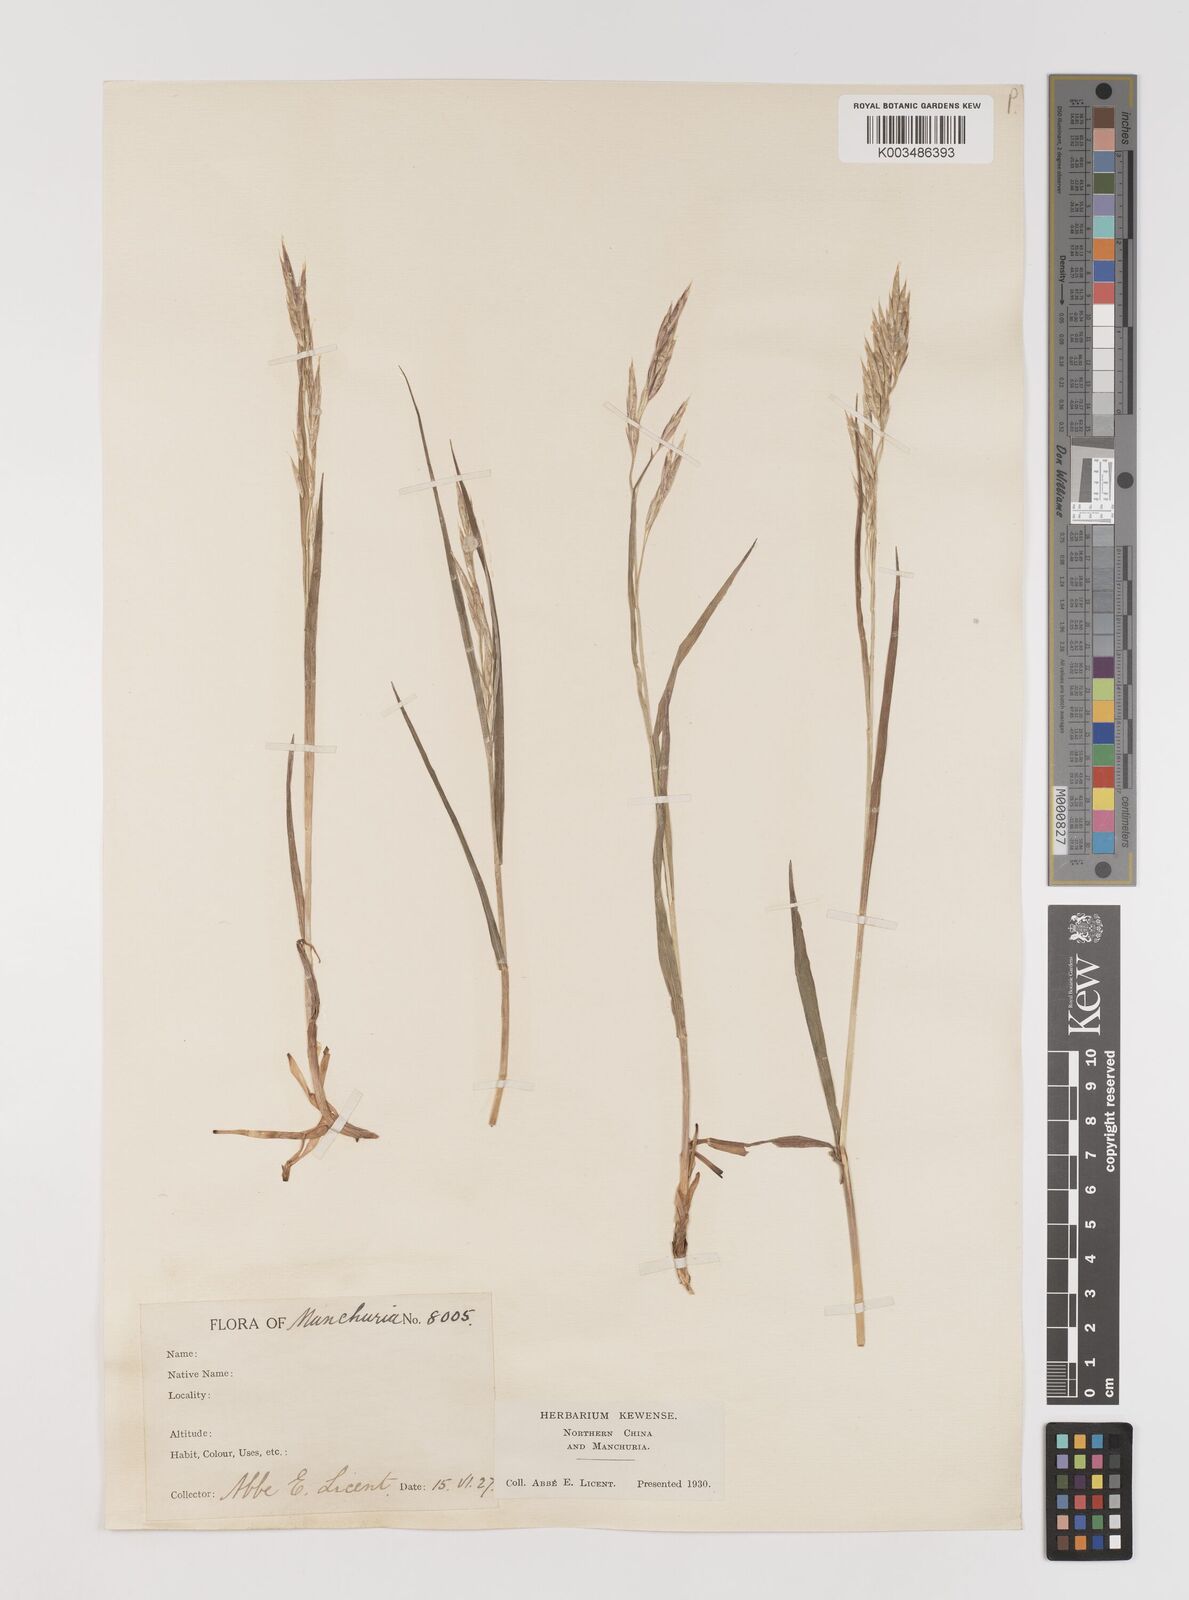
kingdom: Plantae
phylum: Tracheophyta
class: Liliopsida
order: Poales
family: Poaceae
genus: Bromus
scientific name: Bromus
